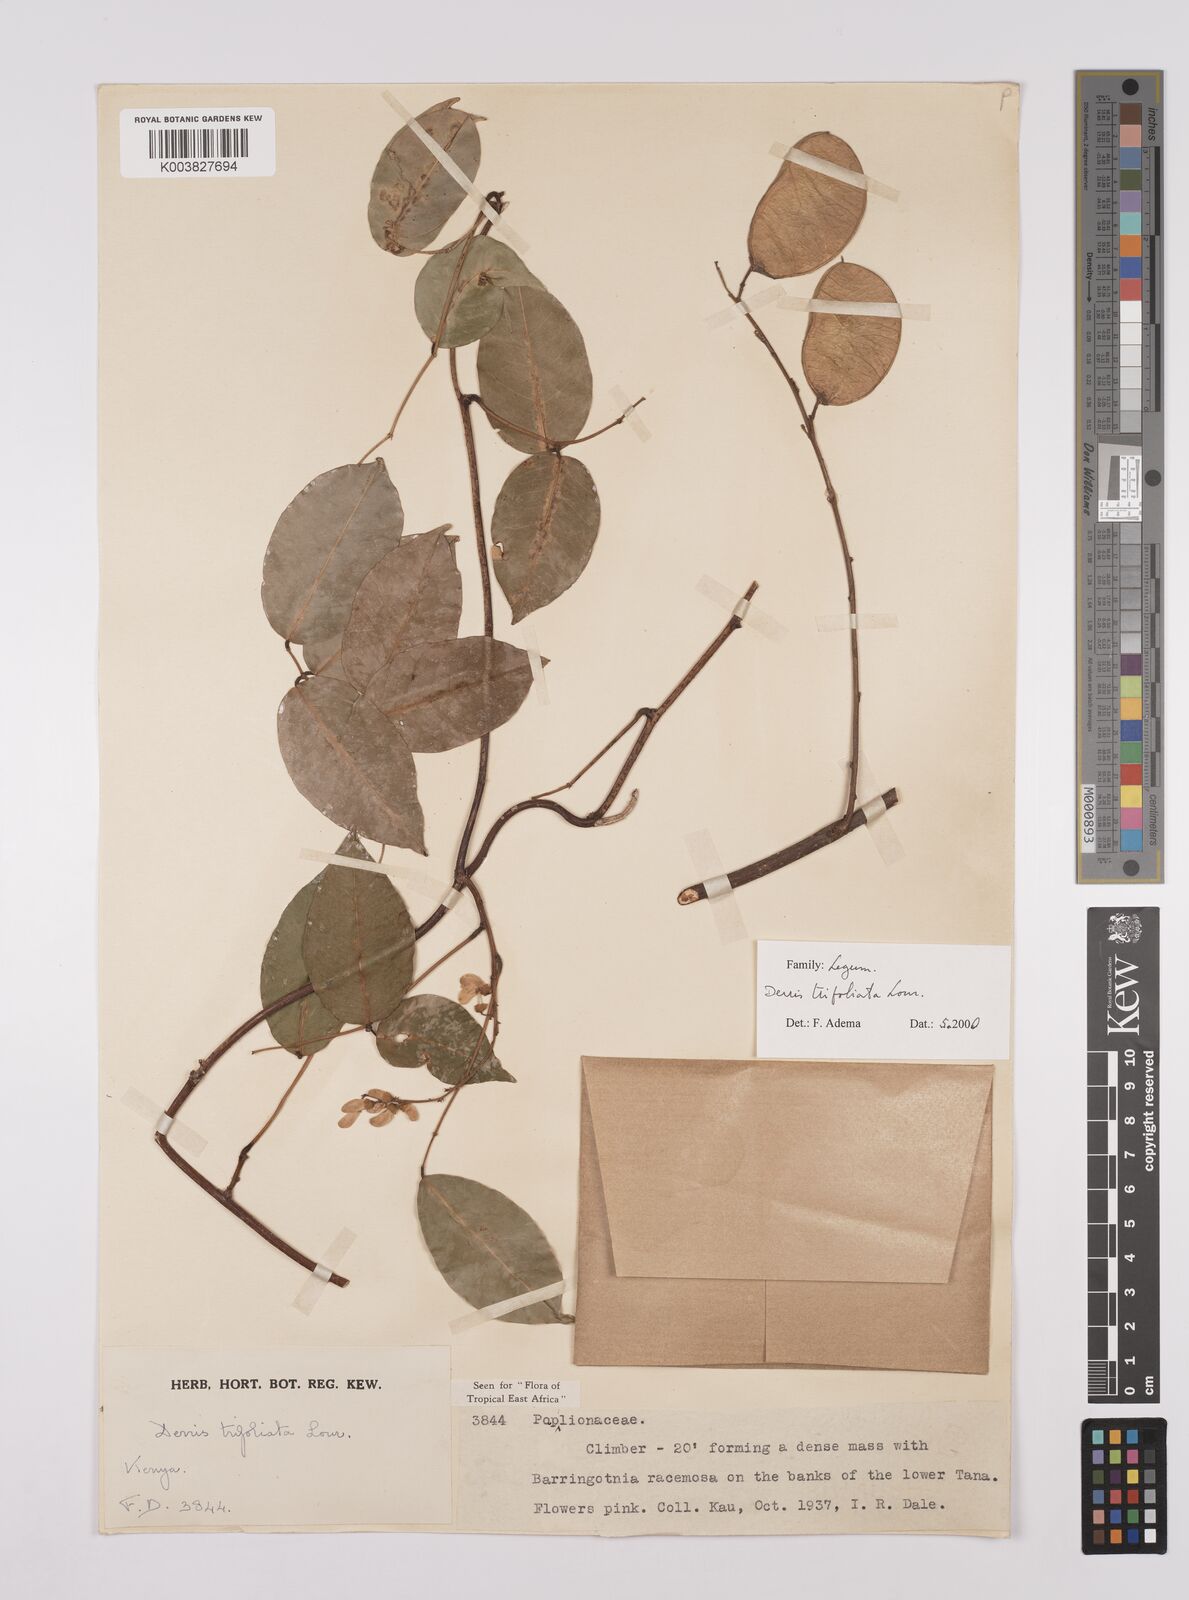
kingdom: Plantae
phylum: Tracheophyta
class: Magnoliopsida
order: Fabales
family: Fabaceae
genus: Derris
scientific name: Derris trifoliata
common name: Three-leaf derris
